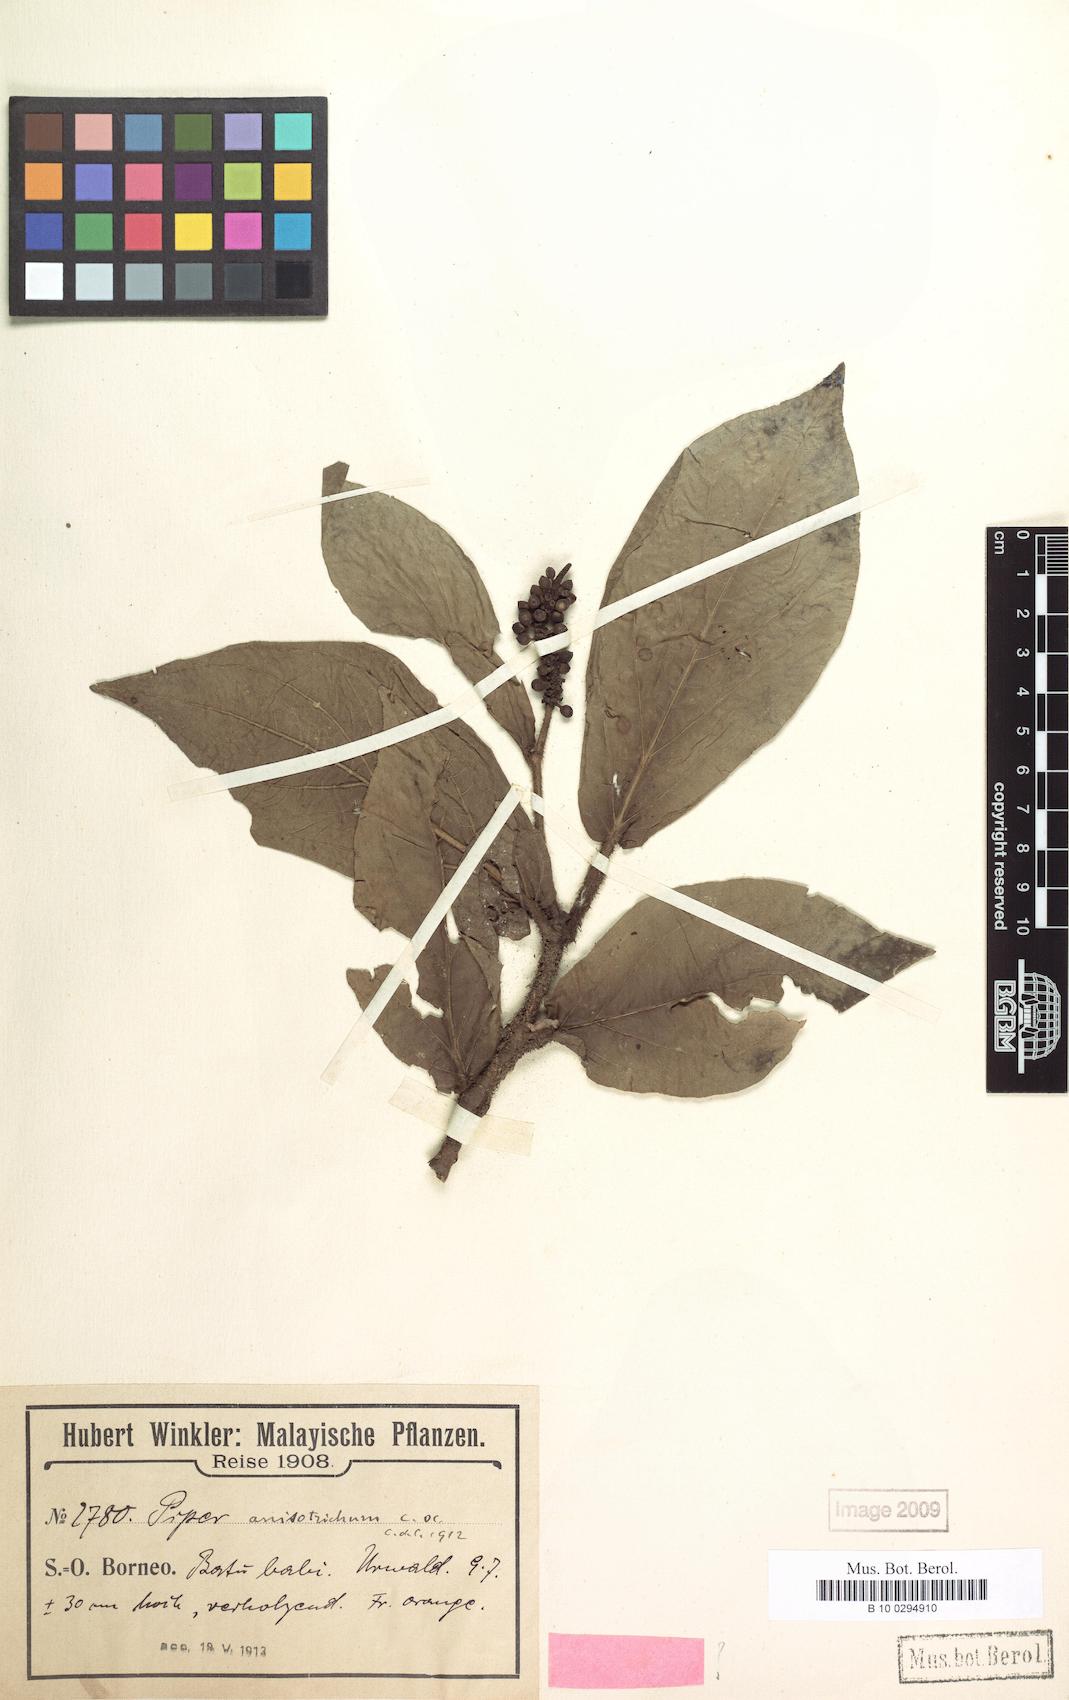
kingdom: Plantae
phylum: Tracheophyta
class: Magnoliopsida
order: Piperales
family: Piperaceae
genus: Piper
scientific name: Piper anisotrichum
